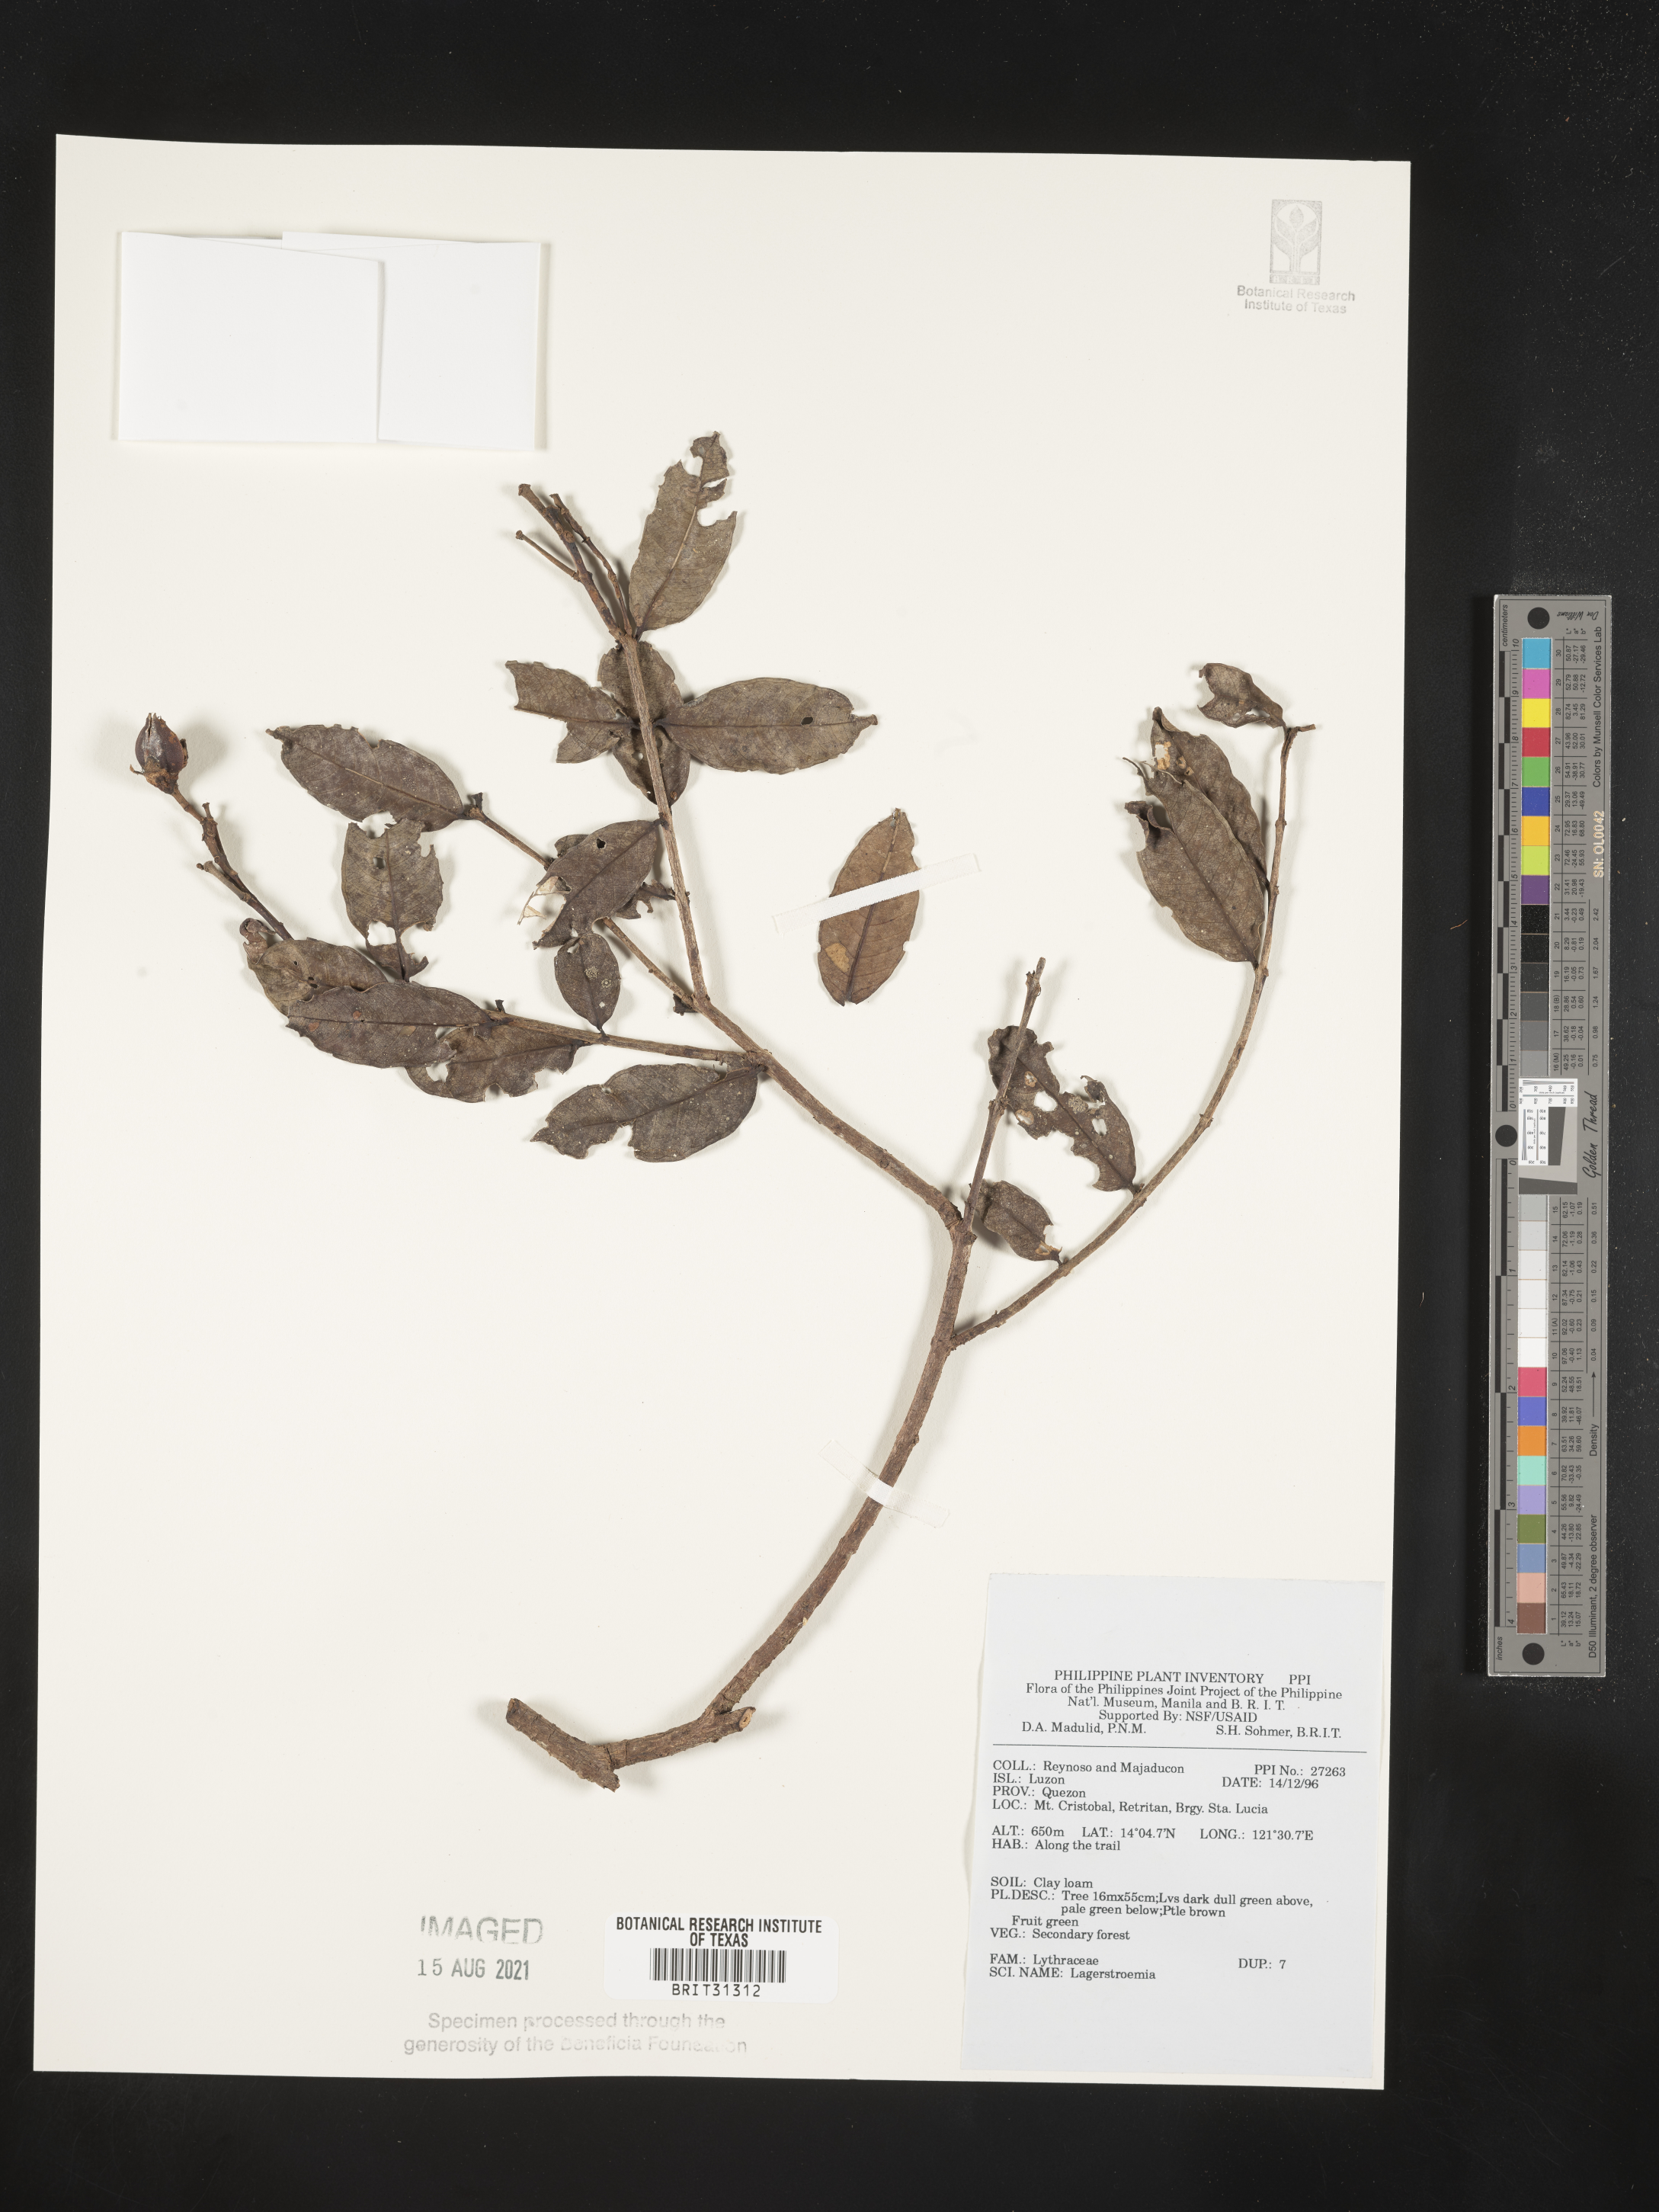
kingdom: Plantae
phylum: Tracheophyta
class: Magnoliopsida
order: Myrtales
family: Lythraceae
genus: Lagerstroemia
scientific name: Lagerstroemia
